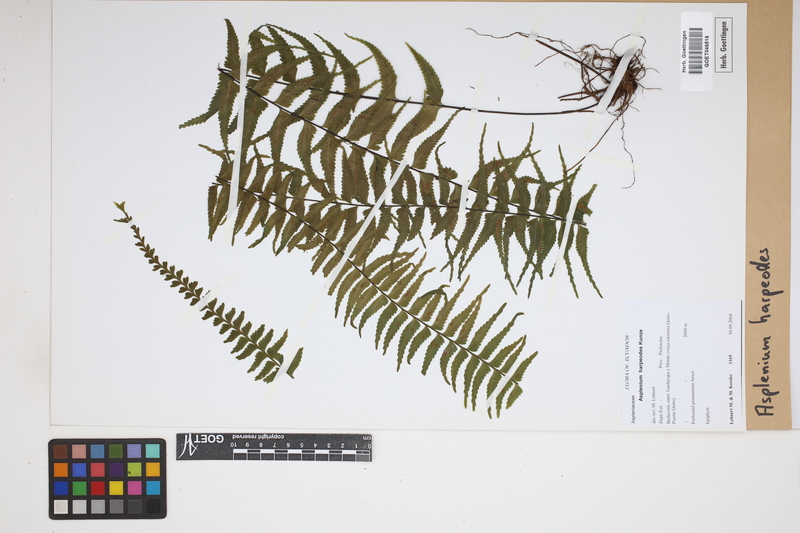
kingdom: Plantae
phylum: Tracheophyta
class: Polypodiopsida
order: Polypodiales
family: Aspleniaceae
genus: Asplenium
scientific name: Asplenium harpeodes
